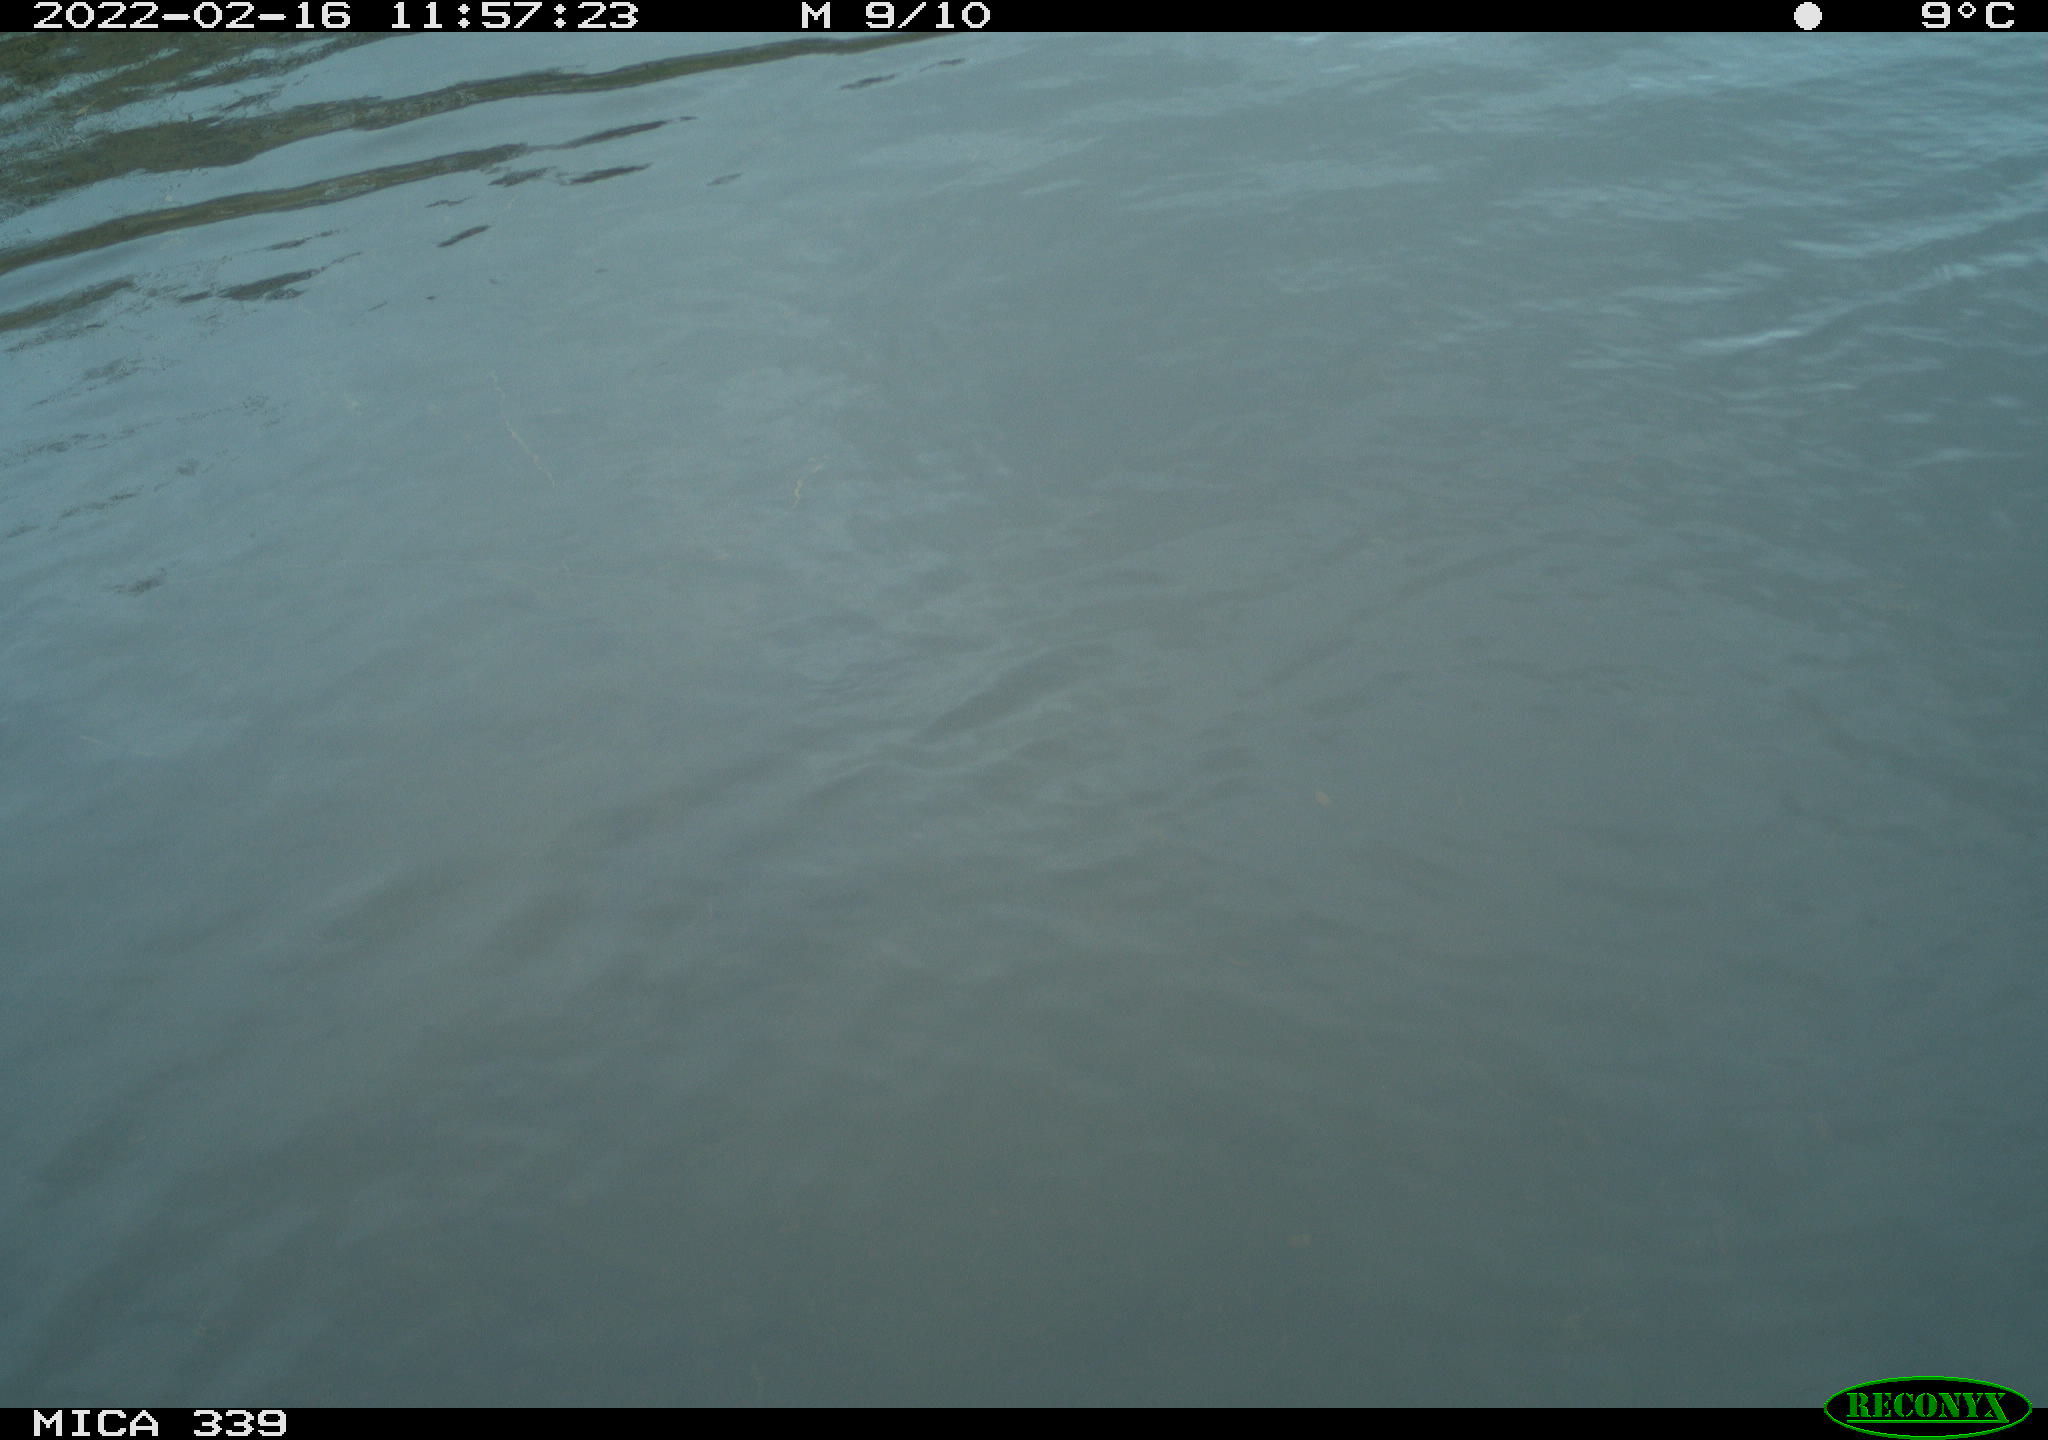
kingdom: Animalia
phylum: Chordata
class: Aves
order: Anseriformes
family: Anatidae
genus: Anas
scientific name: Anas platyrhynchos
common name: Mallard
